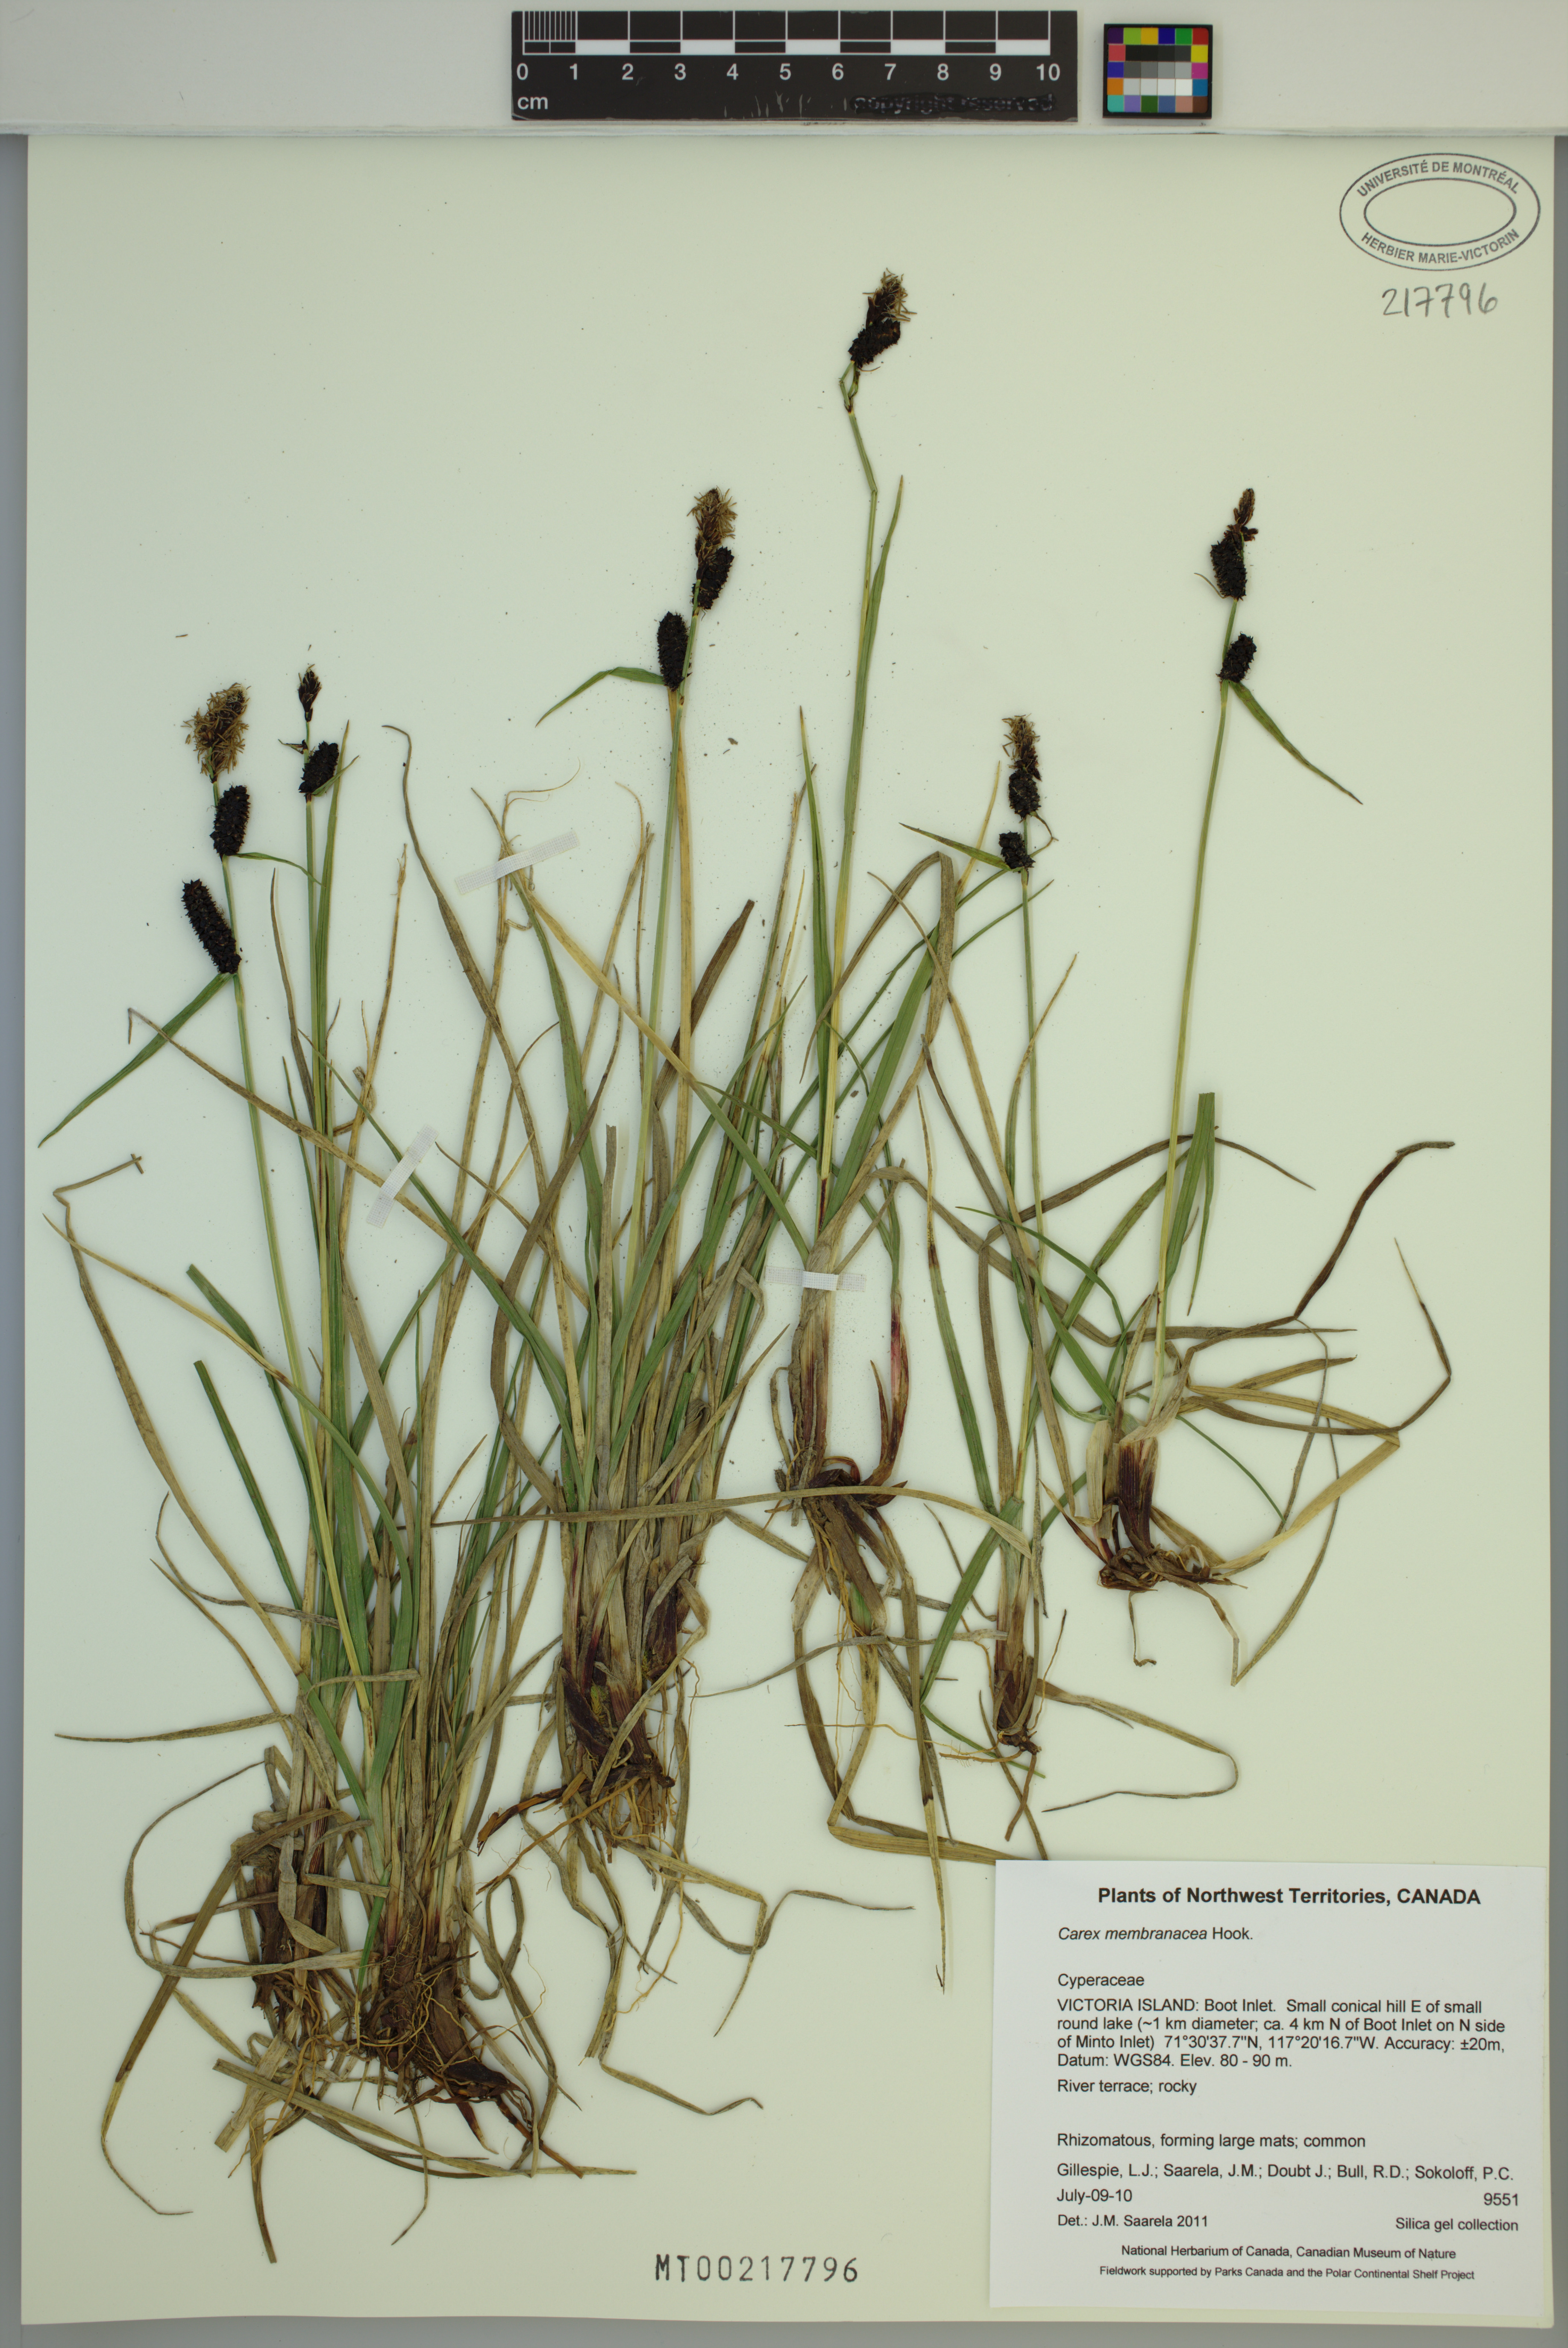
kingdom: Plantae
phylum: Tracheophyta
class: Liliopsida
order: Poales
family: Cyperaceae
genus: Carex
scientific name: Carex membranacea
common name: Fragile sedge
